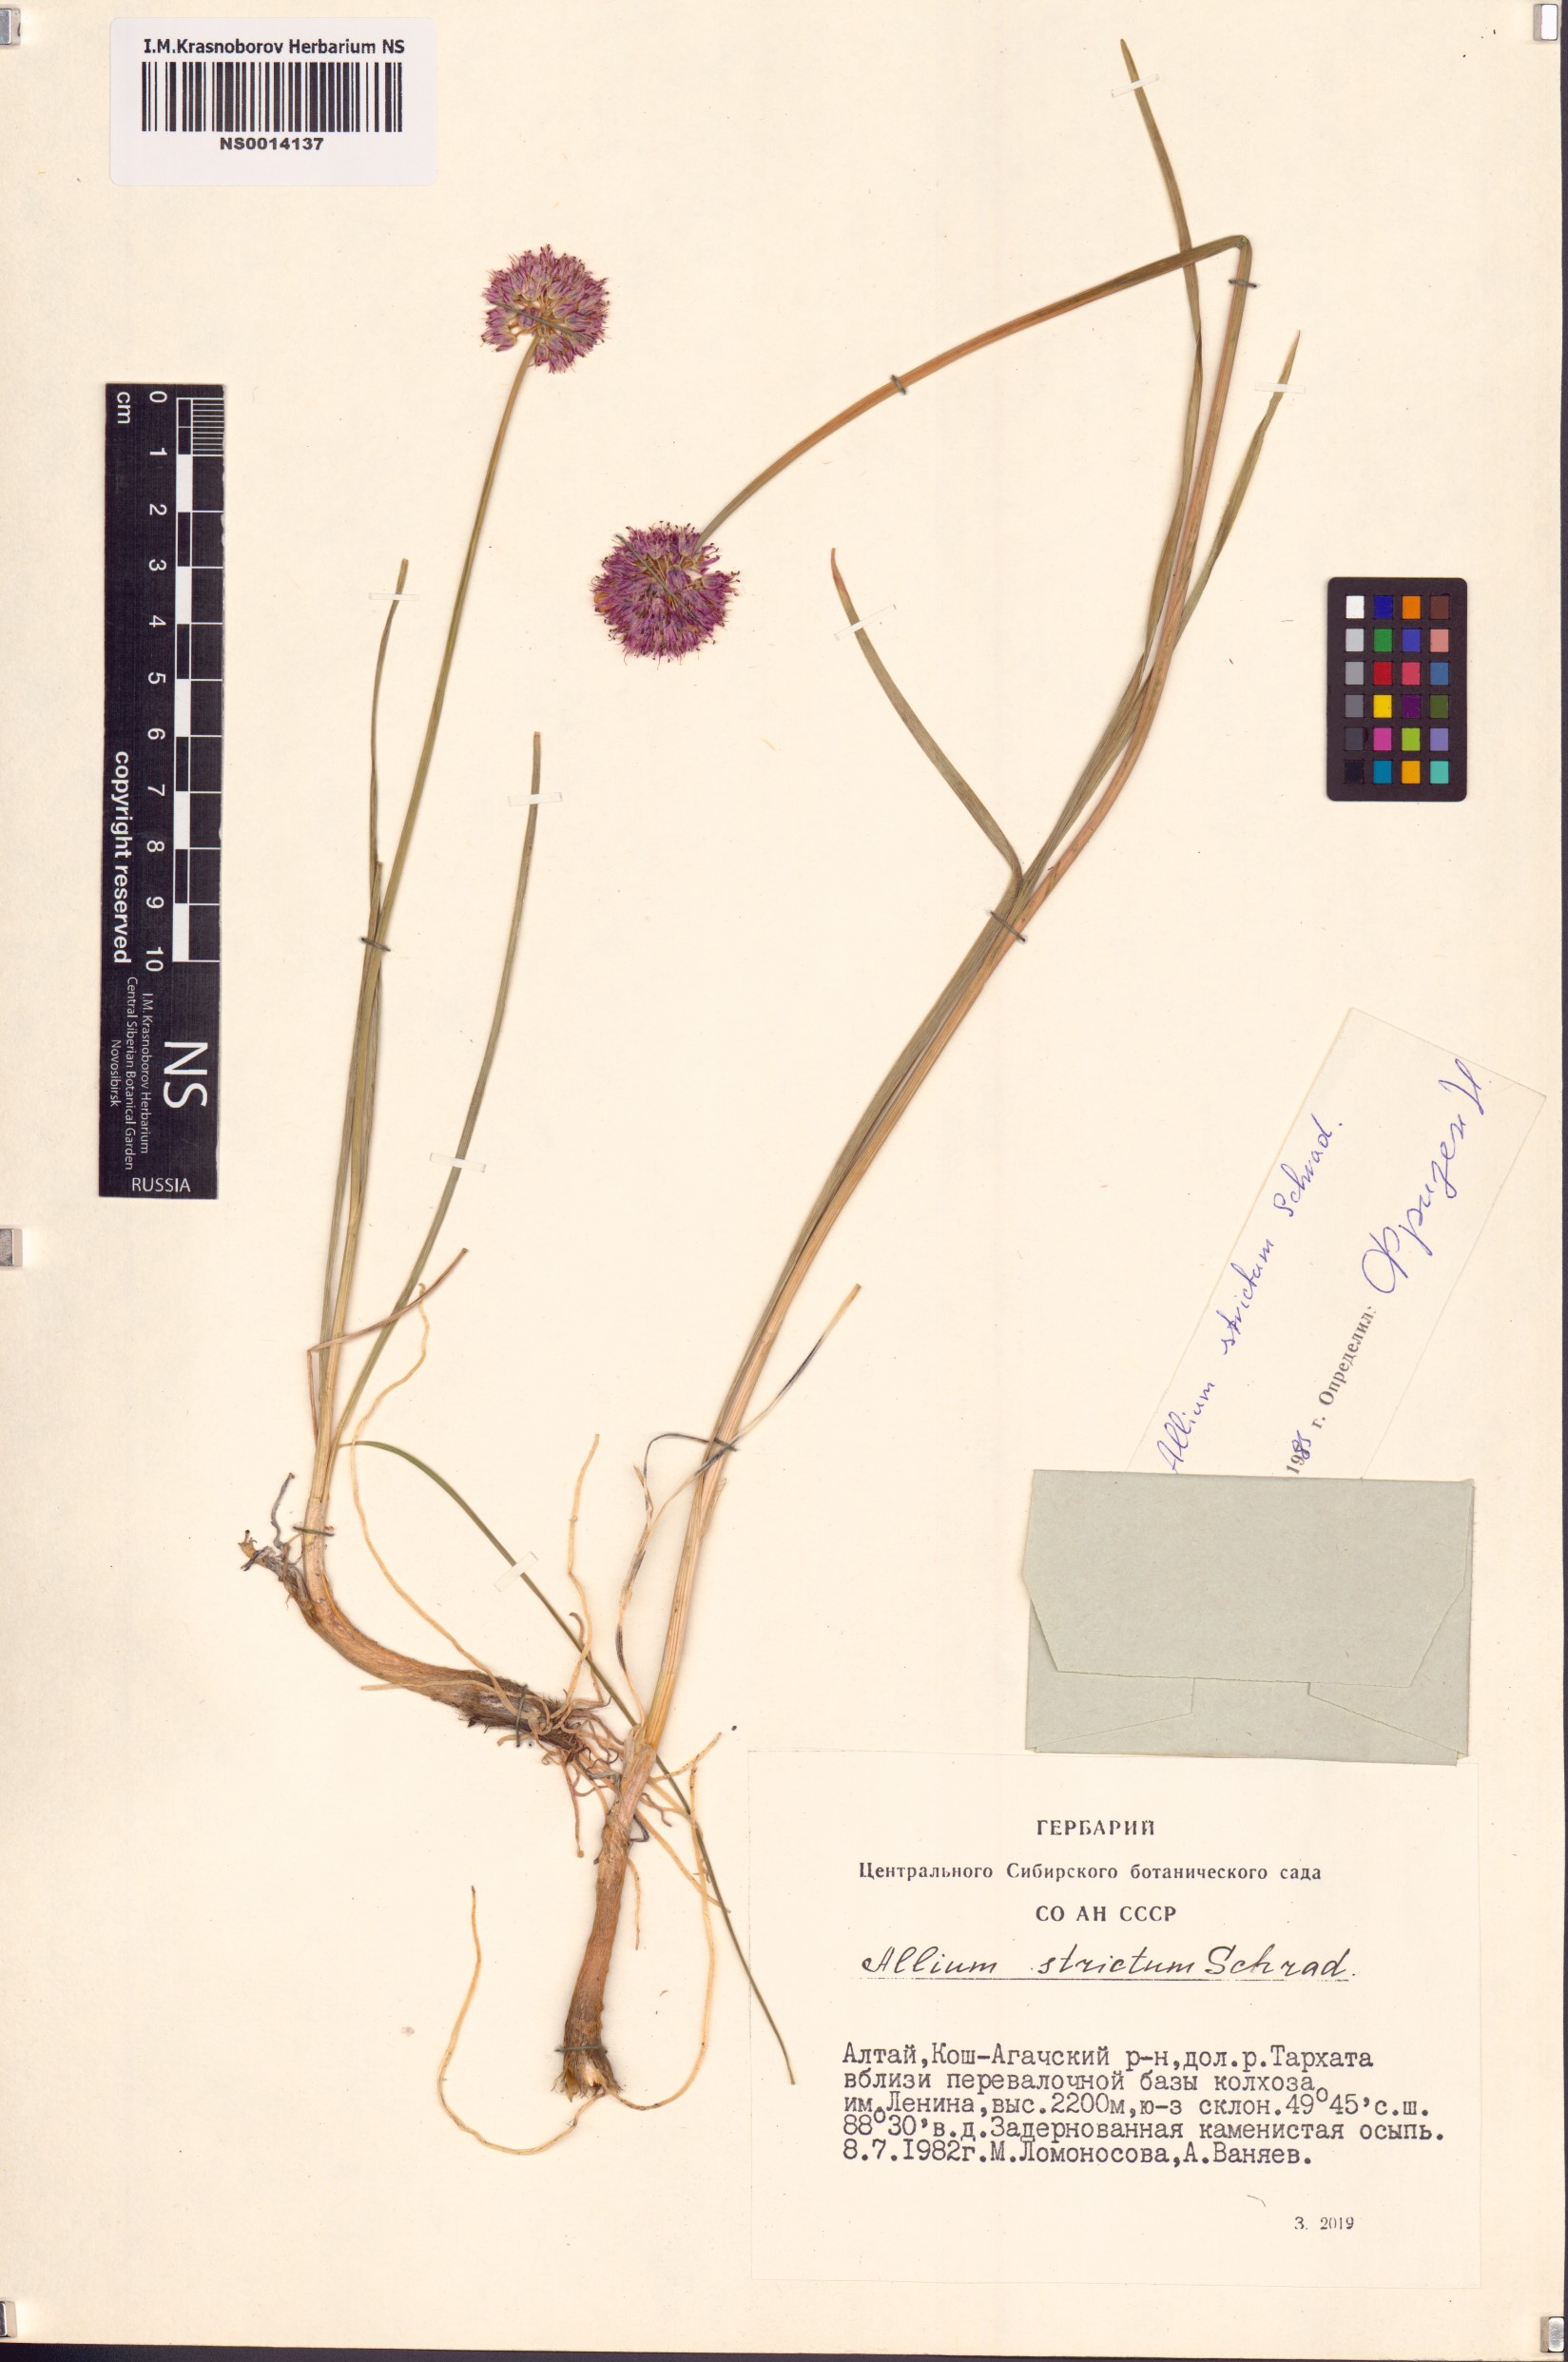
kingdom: Plantae
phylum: Tracheophyta
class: Liliopsida
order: Asparagales
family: Amaryllidaceae
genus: Allium
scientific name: Allium strictum
